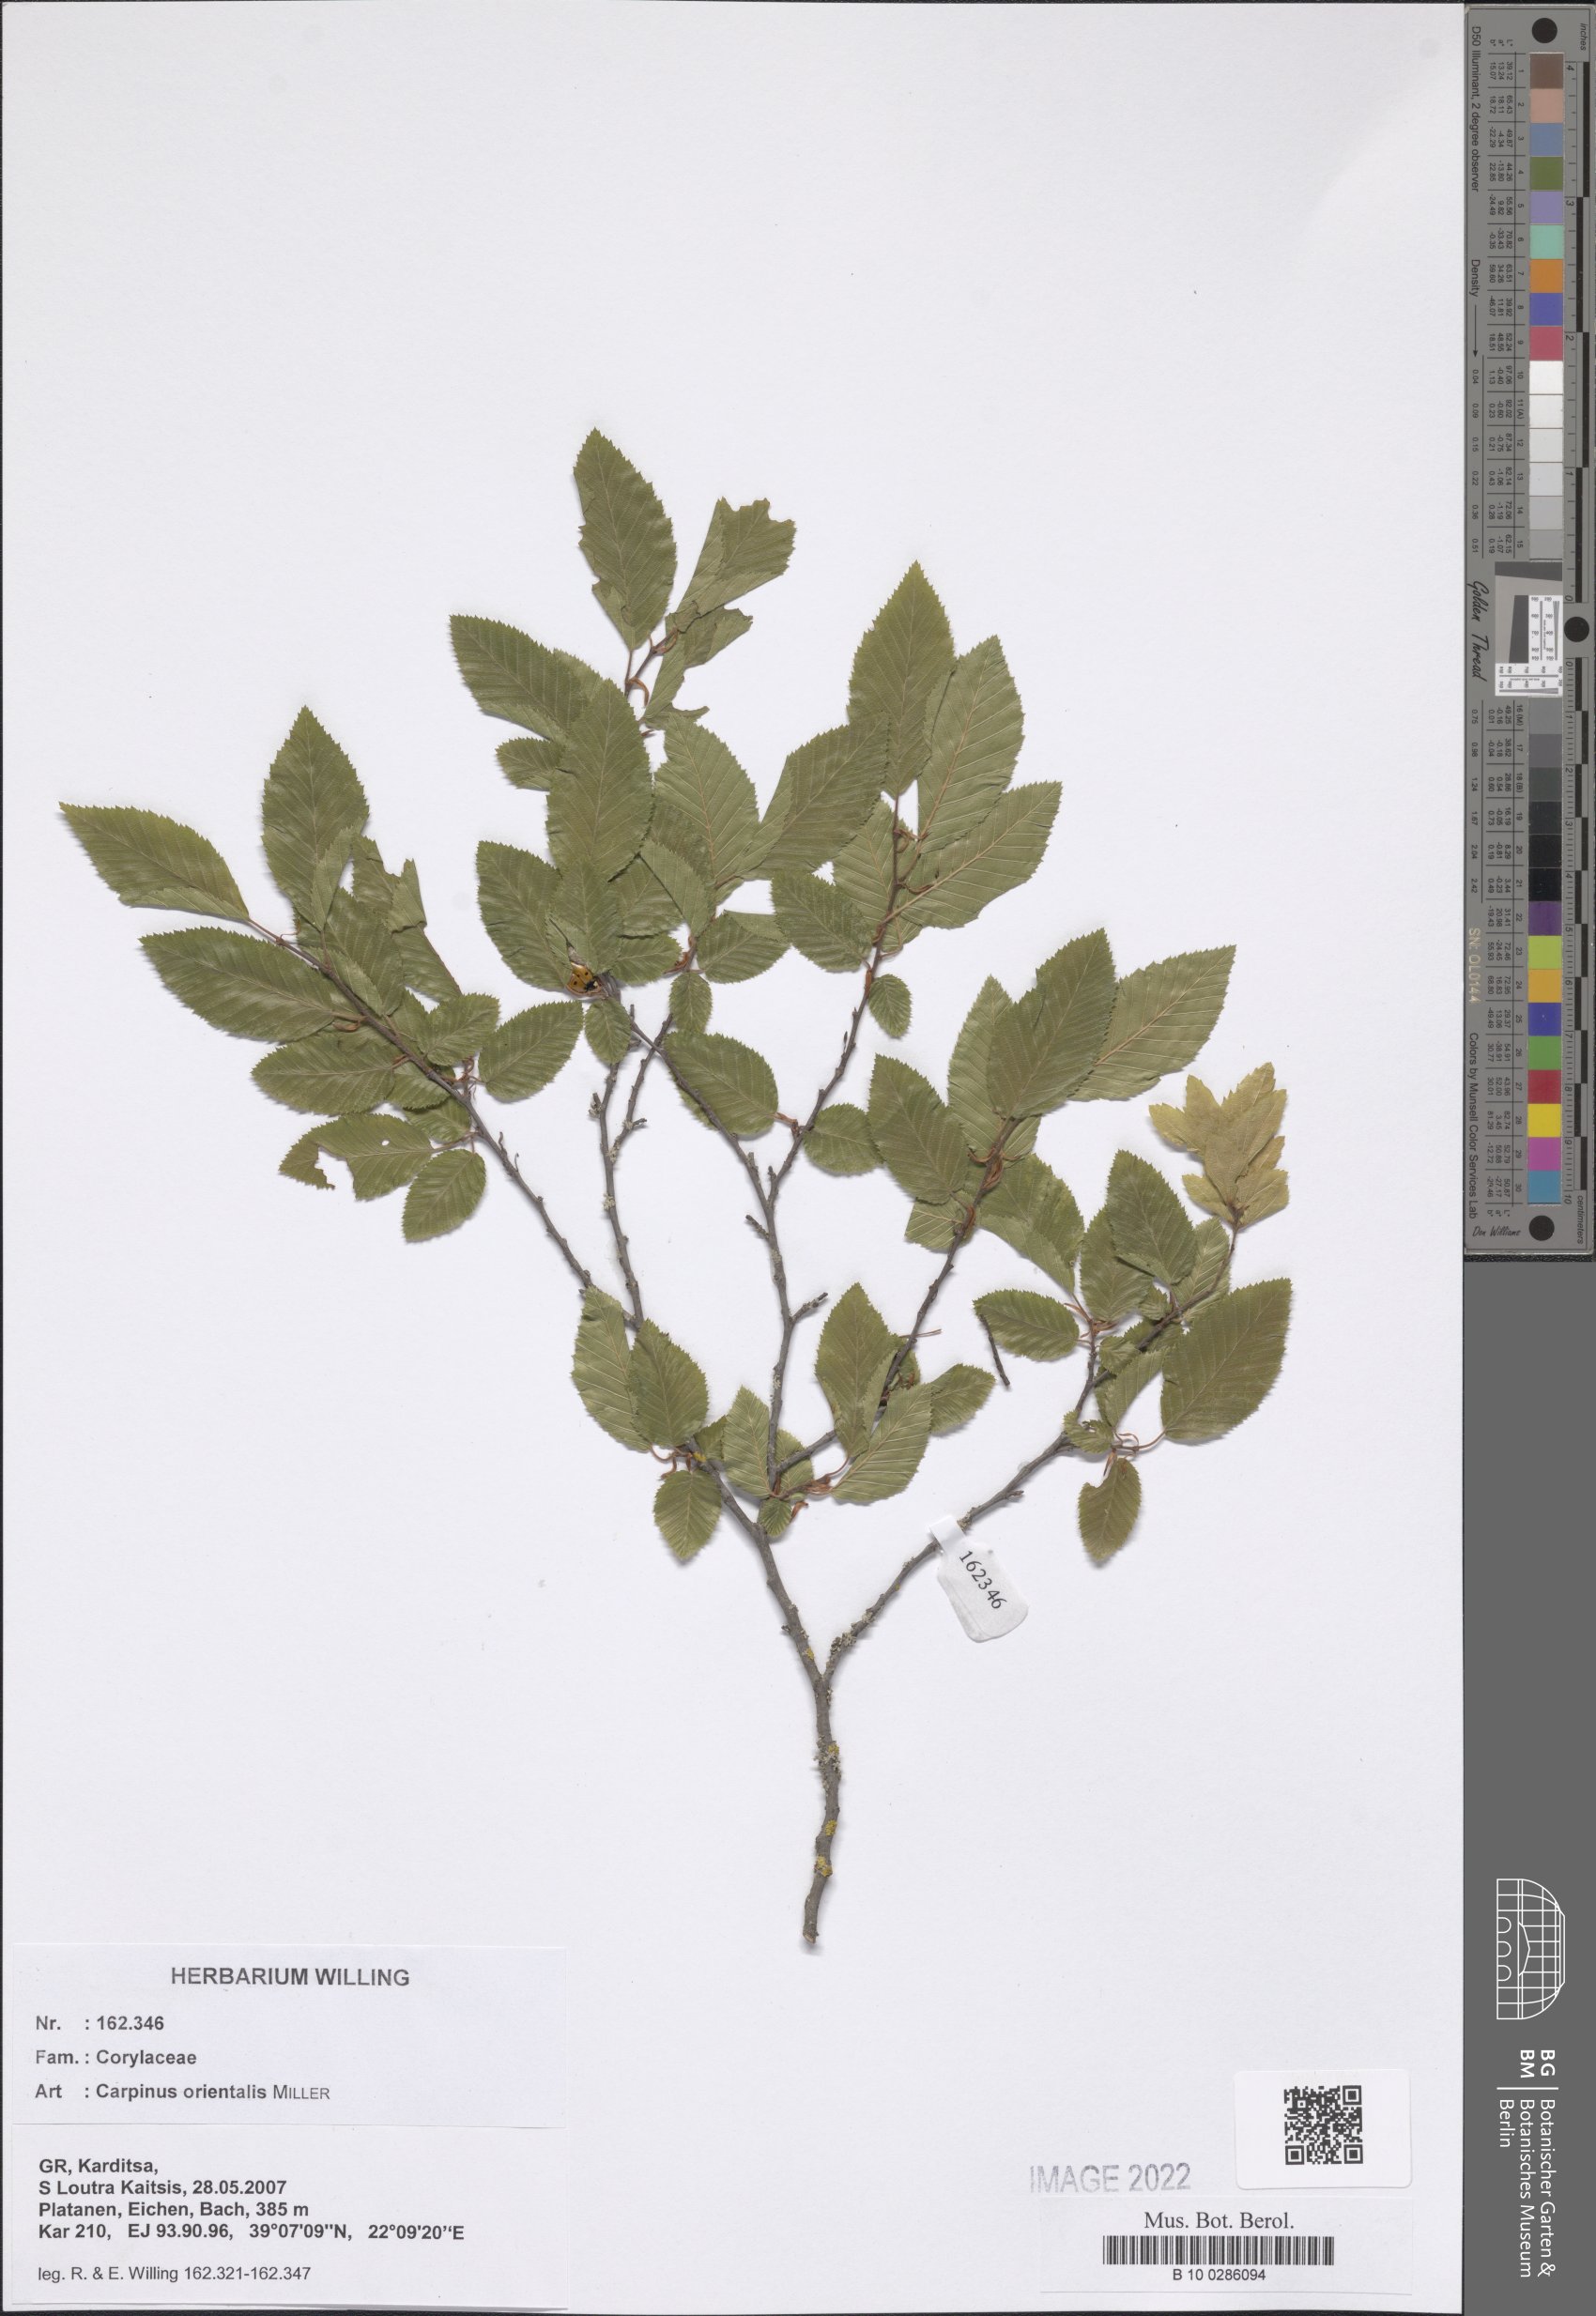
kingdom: Plantae
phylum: Tracheophyta
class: Magnoliopsida
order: Fagales
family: Betulaceae
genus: Carpinus
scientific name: Carpinus orientalis
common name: Eastern hornbeam
